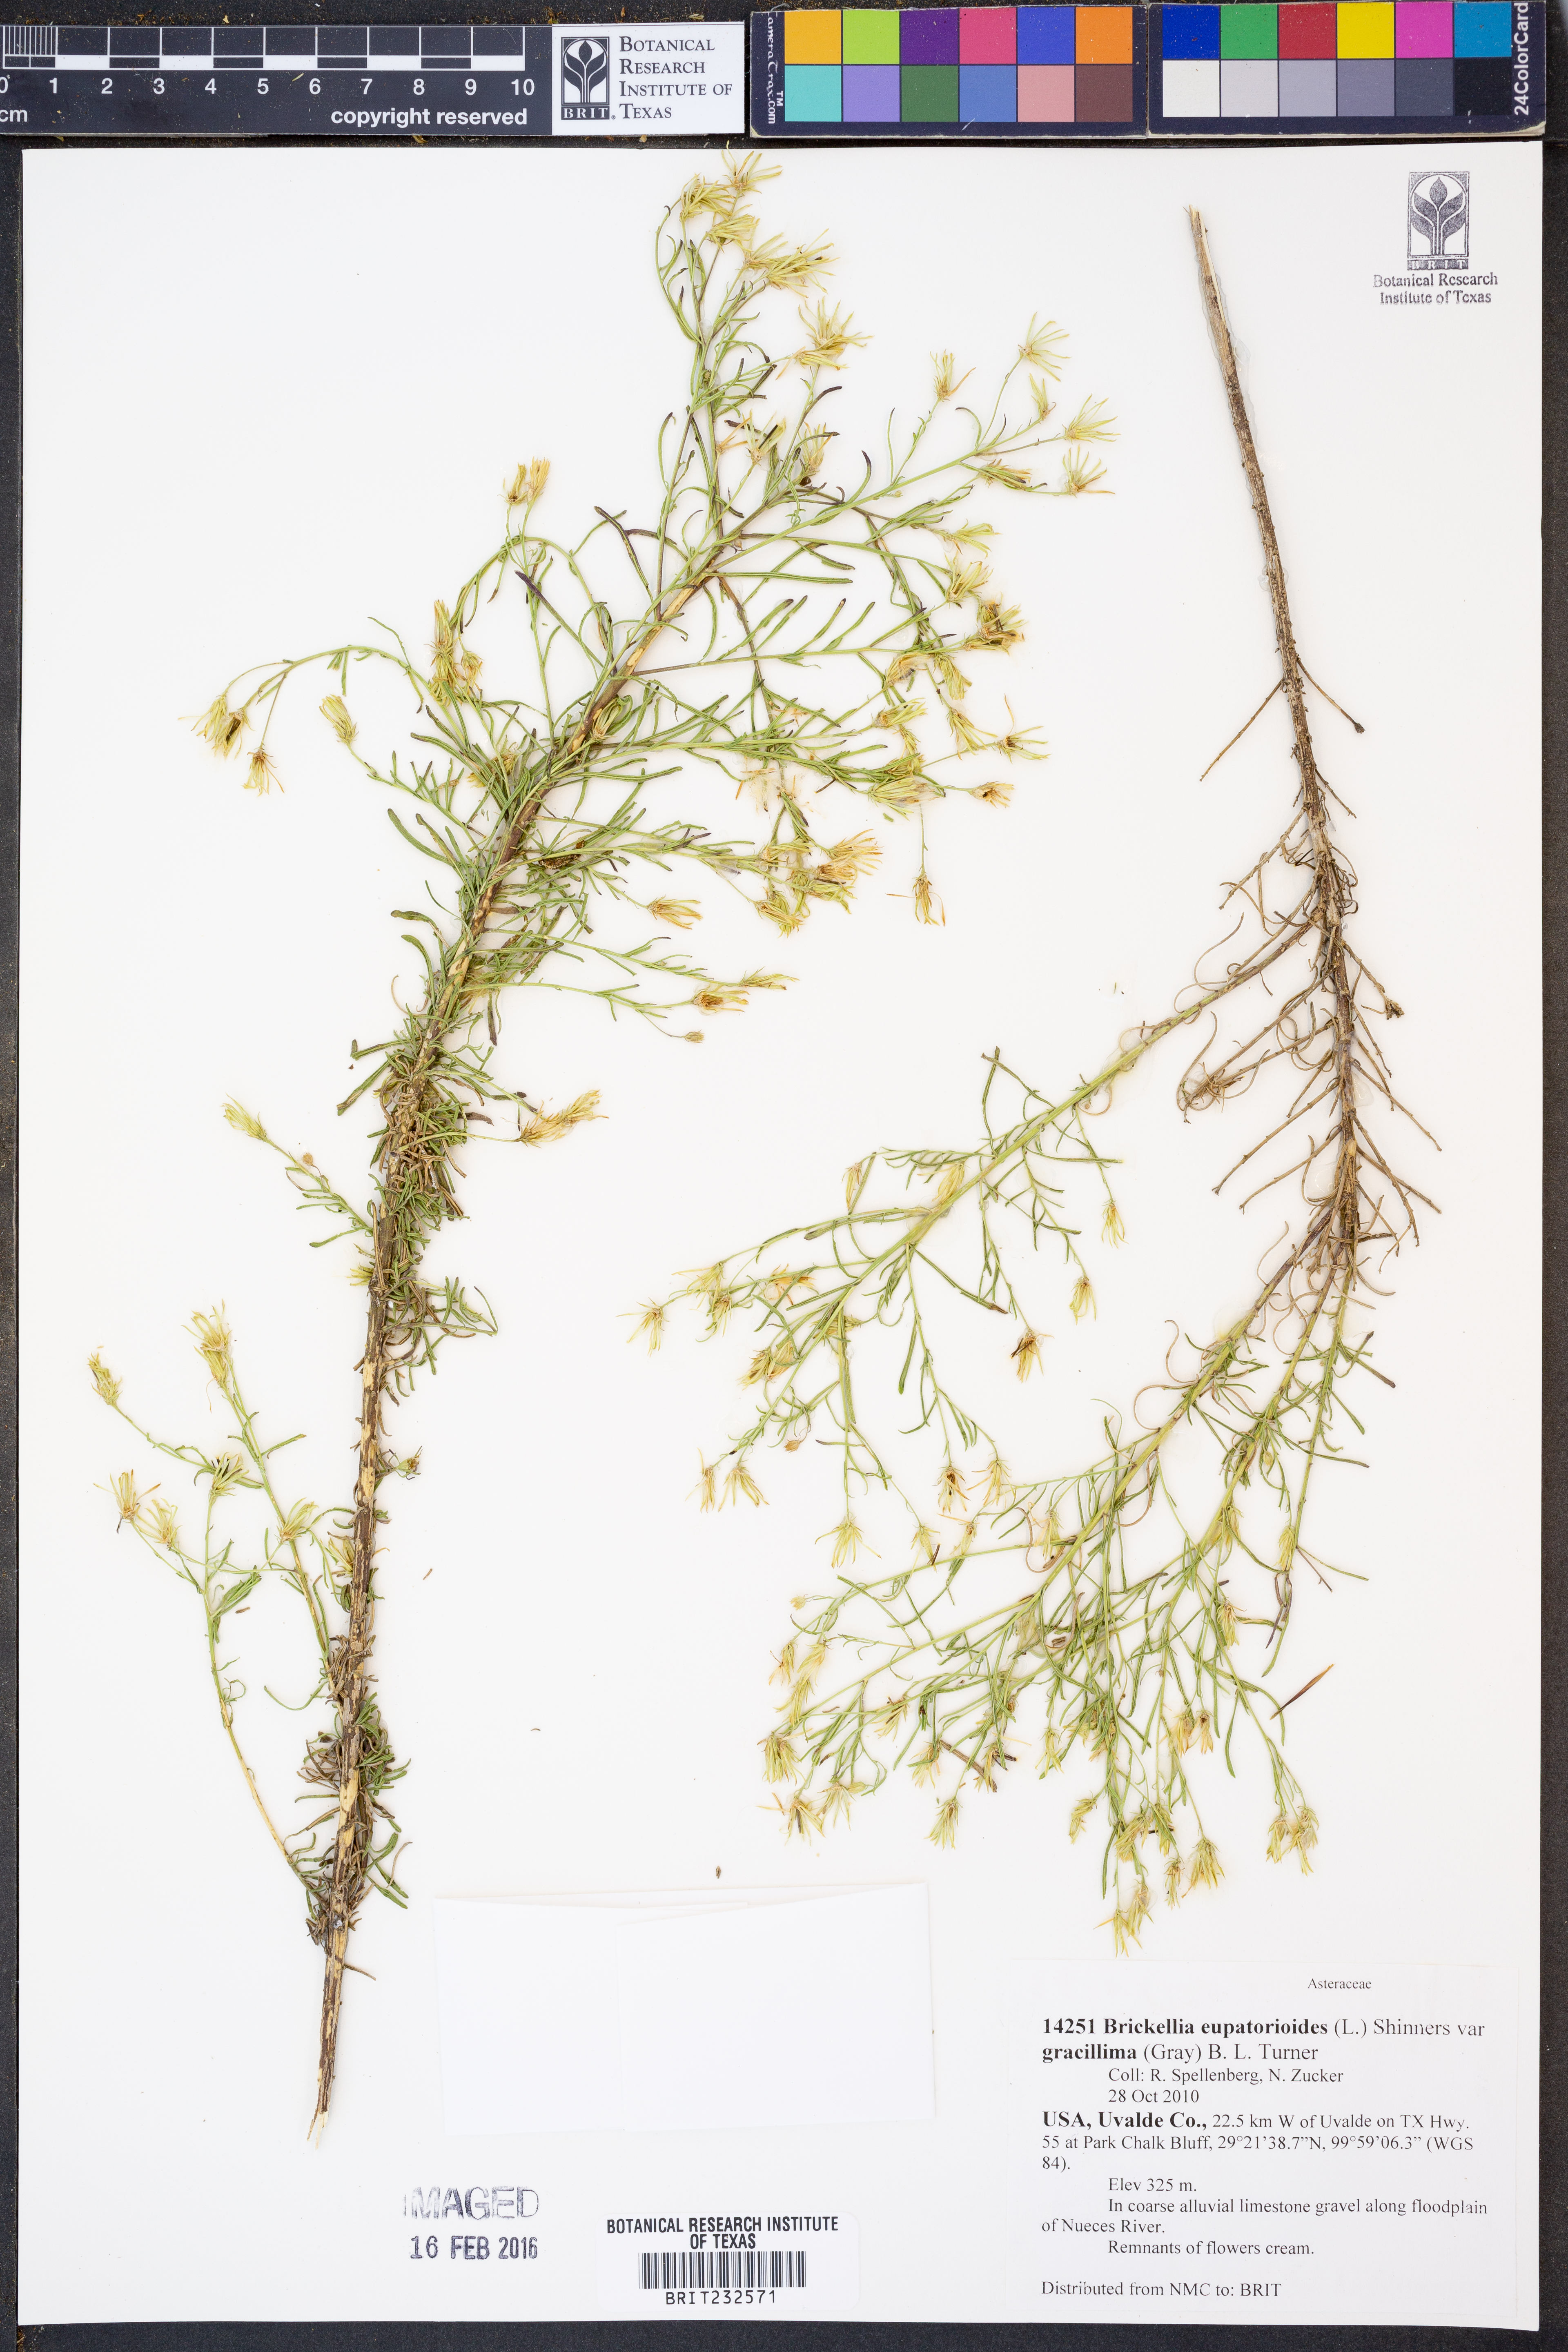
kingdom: Plantae
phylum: Tracheophyta
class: Magnoliopsida
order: Asterales
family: Asteraceae
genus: Brickellia
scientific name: Brickellia leptophylla
